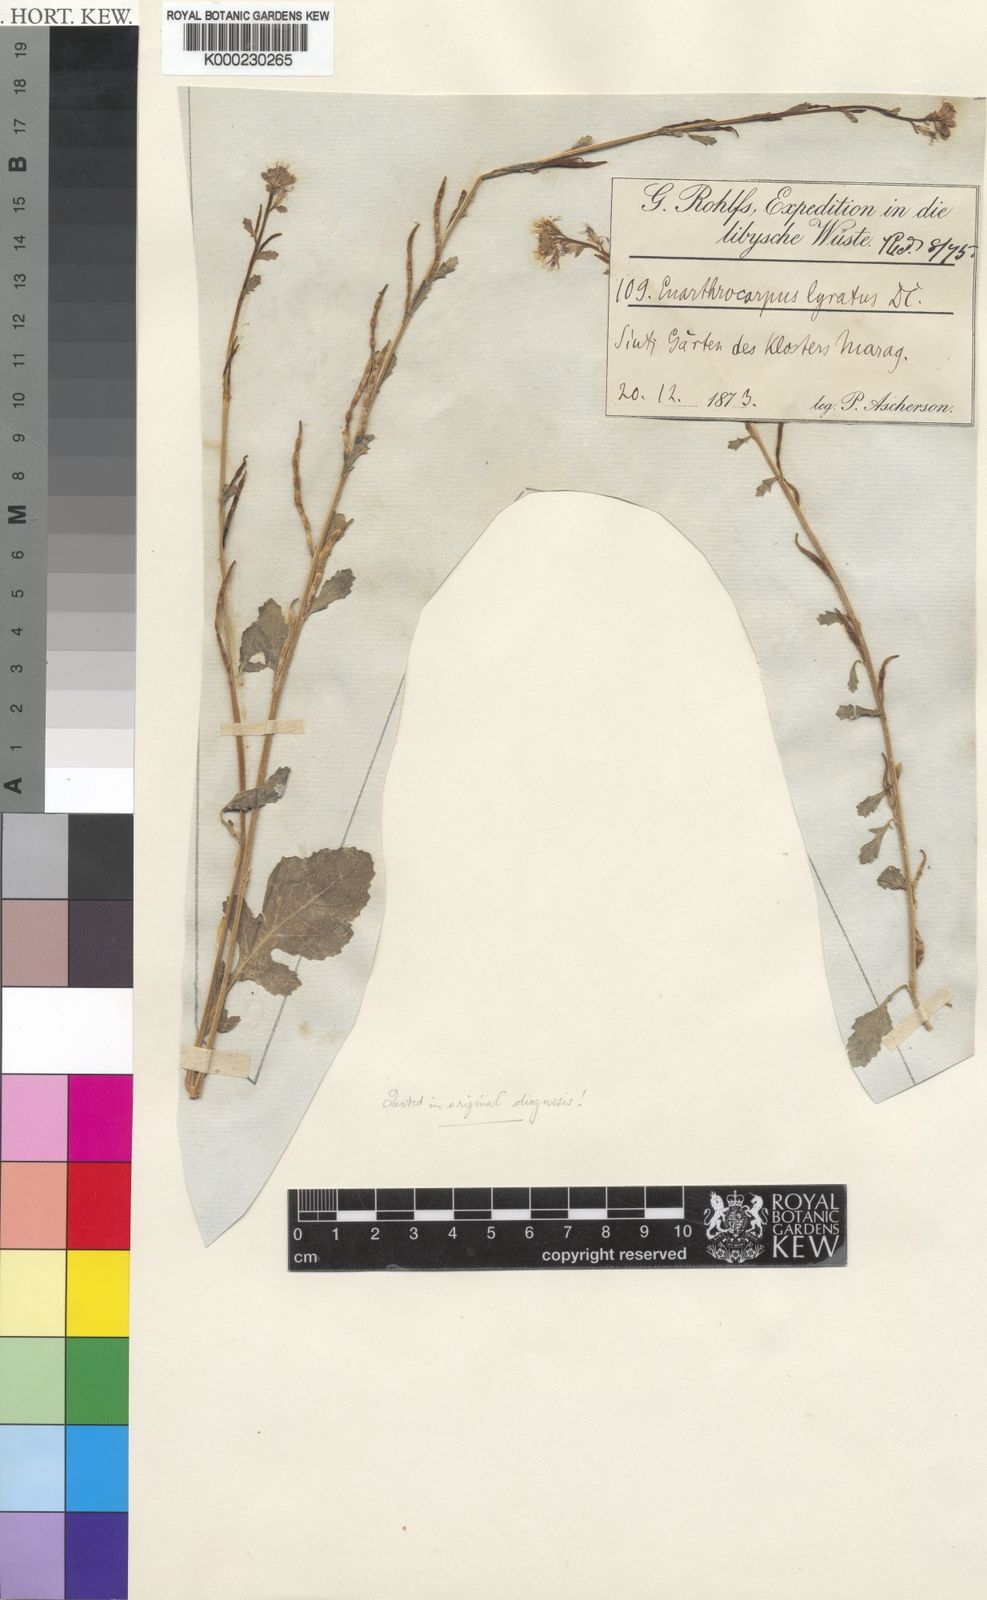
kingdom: Plantae
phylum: Tracheophyta
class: Magnoliopsida
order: Brassicales
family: Brassicaceae
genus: Enarthrocarpus
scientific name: Enarthrocarpus lyratus
